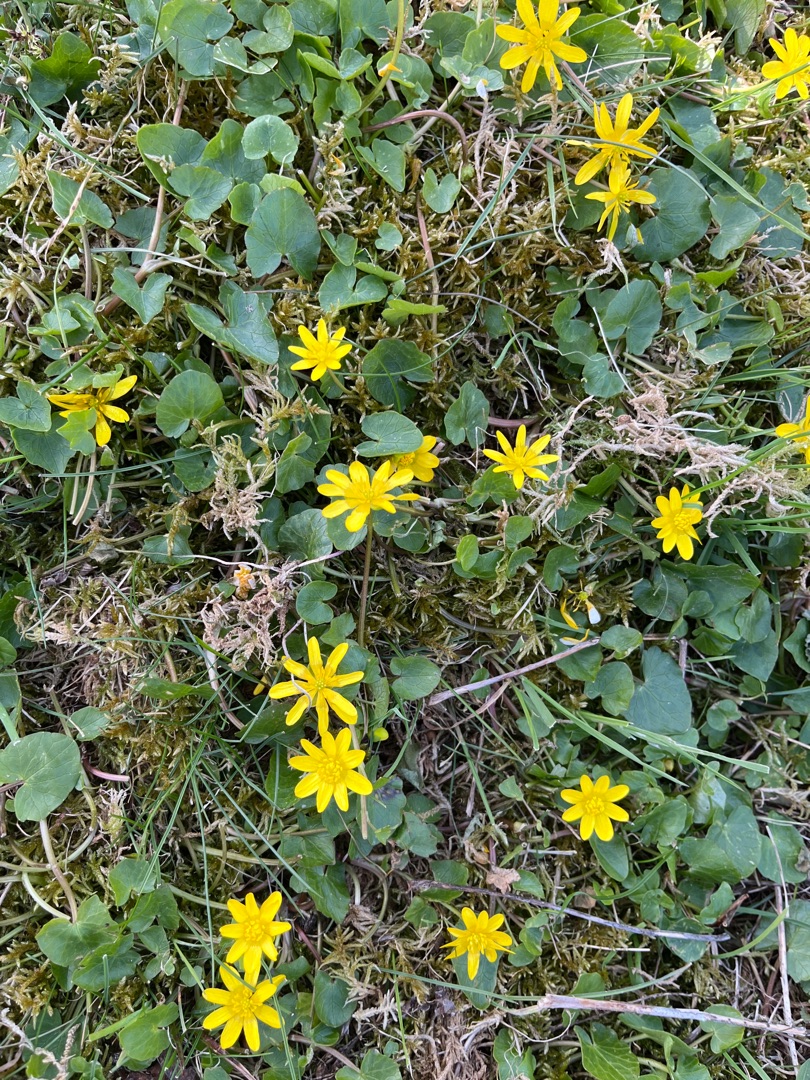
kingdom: Plantae
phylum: Tracheophyta
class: Magnoliopsida
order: Ranunculales
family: Ranunculaceae
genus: Ficaria
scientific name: Ficaria verna
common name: Vorterod
